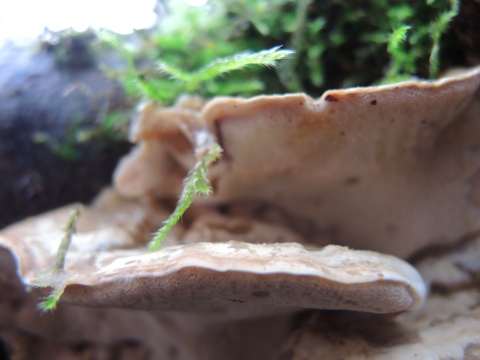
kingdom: Fungi
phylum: Basidiomycota
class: Agaricomycetes
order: Polyporales
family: Phanerochaetaceae
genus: Bjerkandera
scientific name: Bjerkandera fumosa
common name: grågul sodporesvamp
